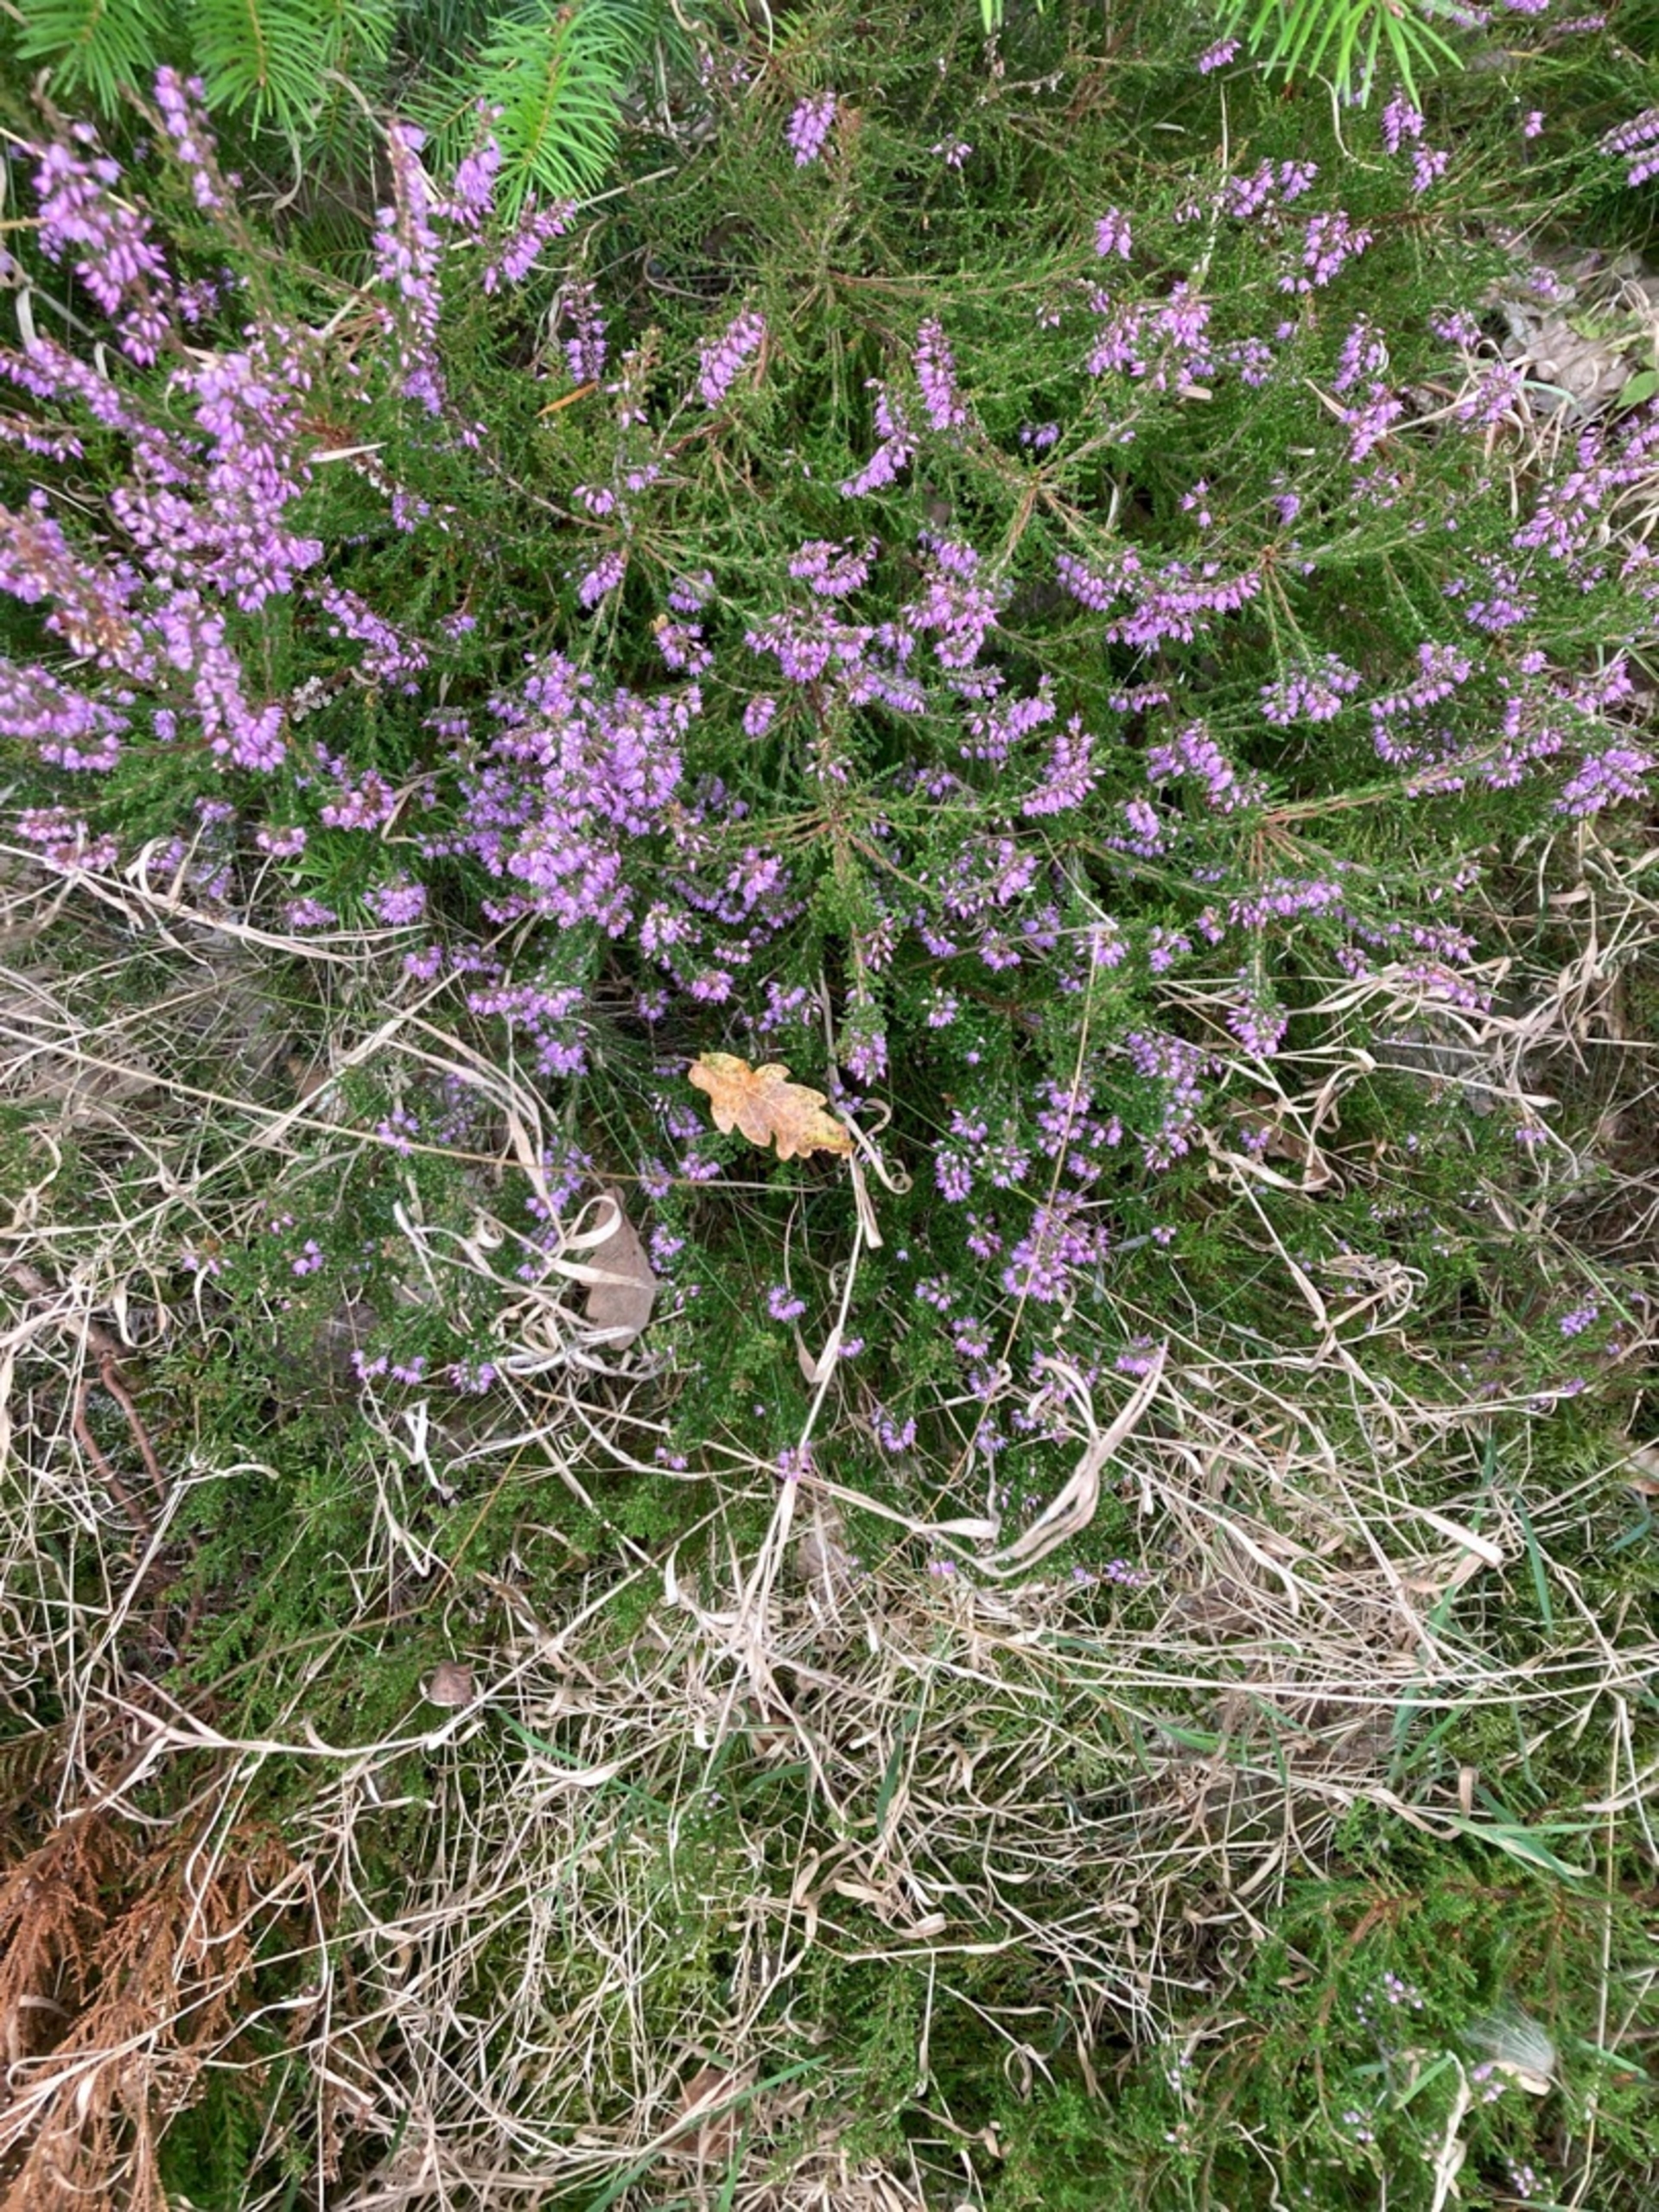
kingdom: Plantae
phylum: Tracheophyta
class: Magnoliopsida
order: Ericales
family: Ericaceae
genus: Calluna
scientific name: Calluna vulgaris
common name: Hedelyng
